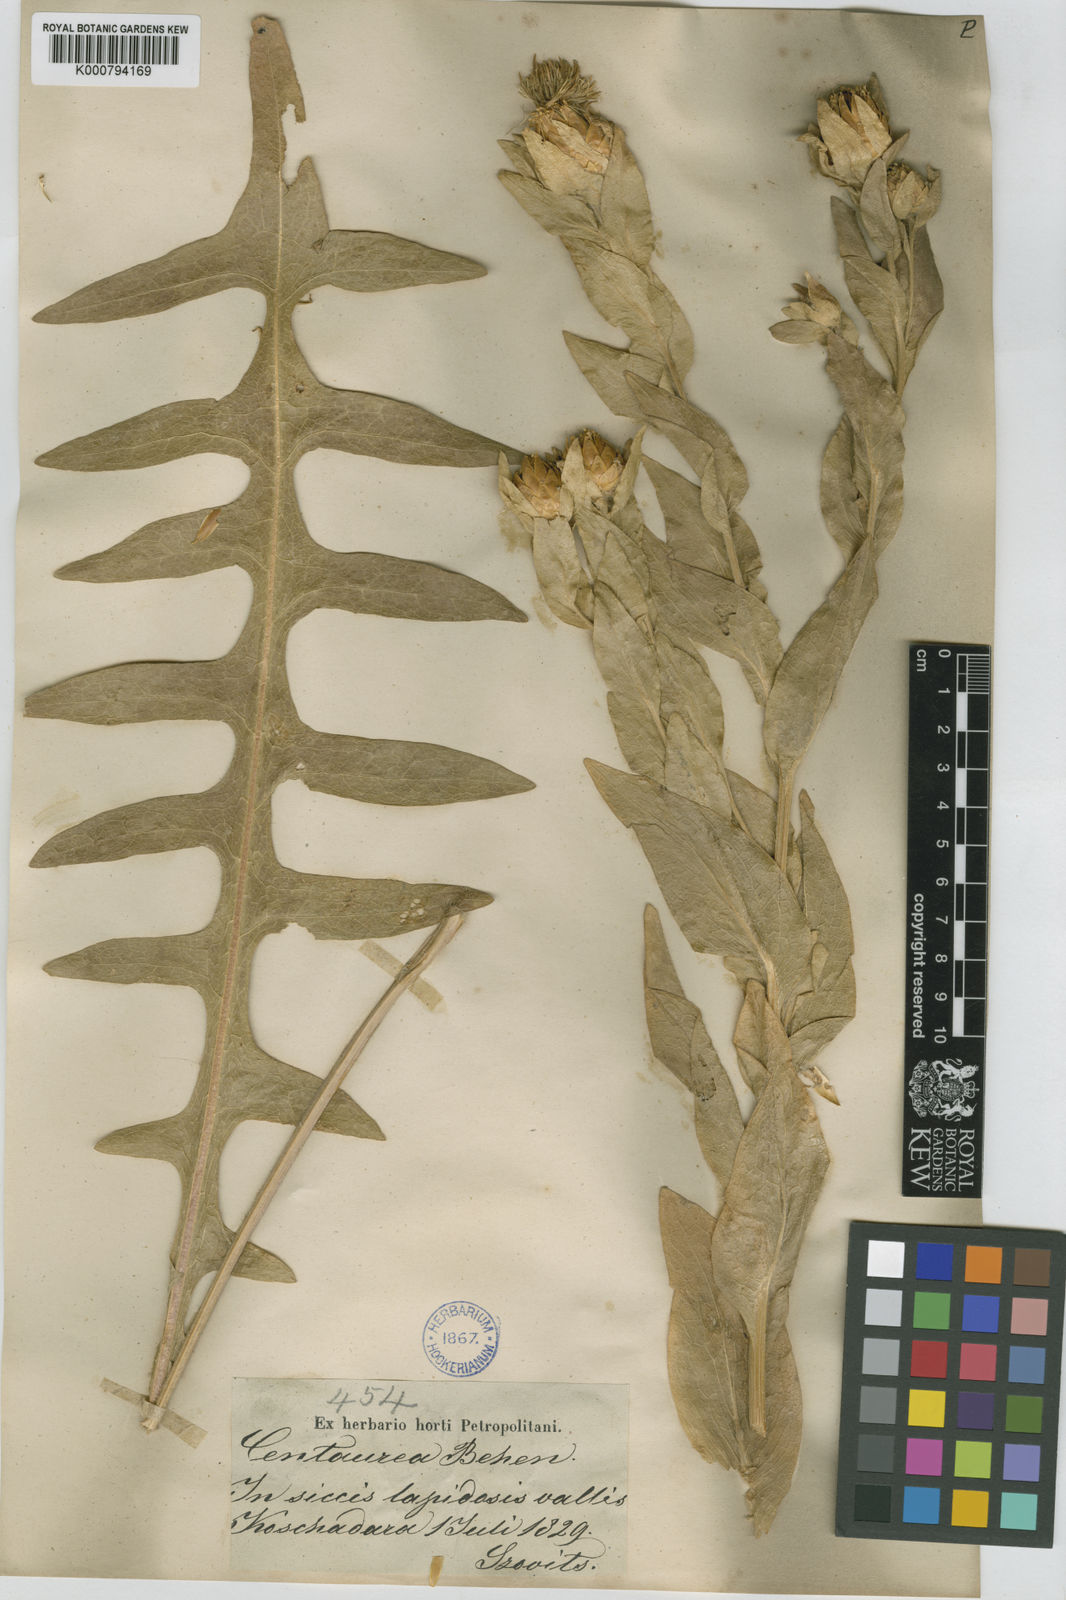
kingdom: Plantae
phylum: Tracheophyta
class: Magnoliopsida
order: Asterales
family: Asteraceae
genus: Centaurea
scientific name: Centaurea szovitsiana
